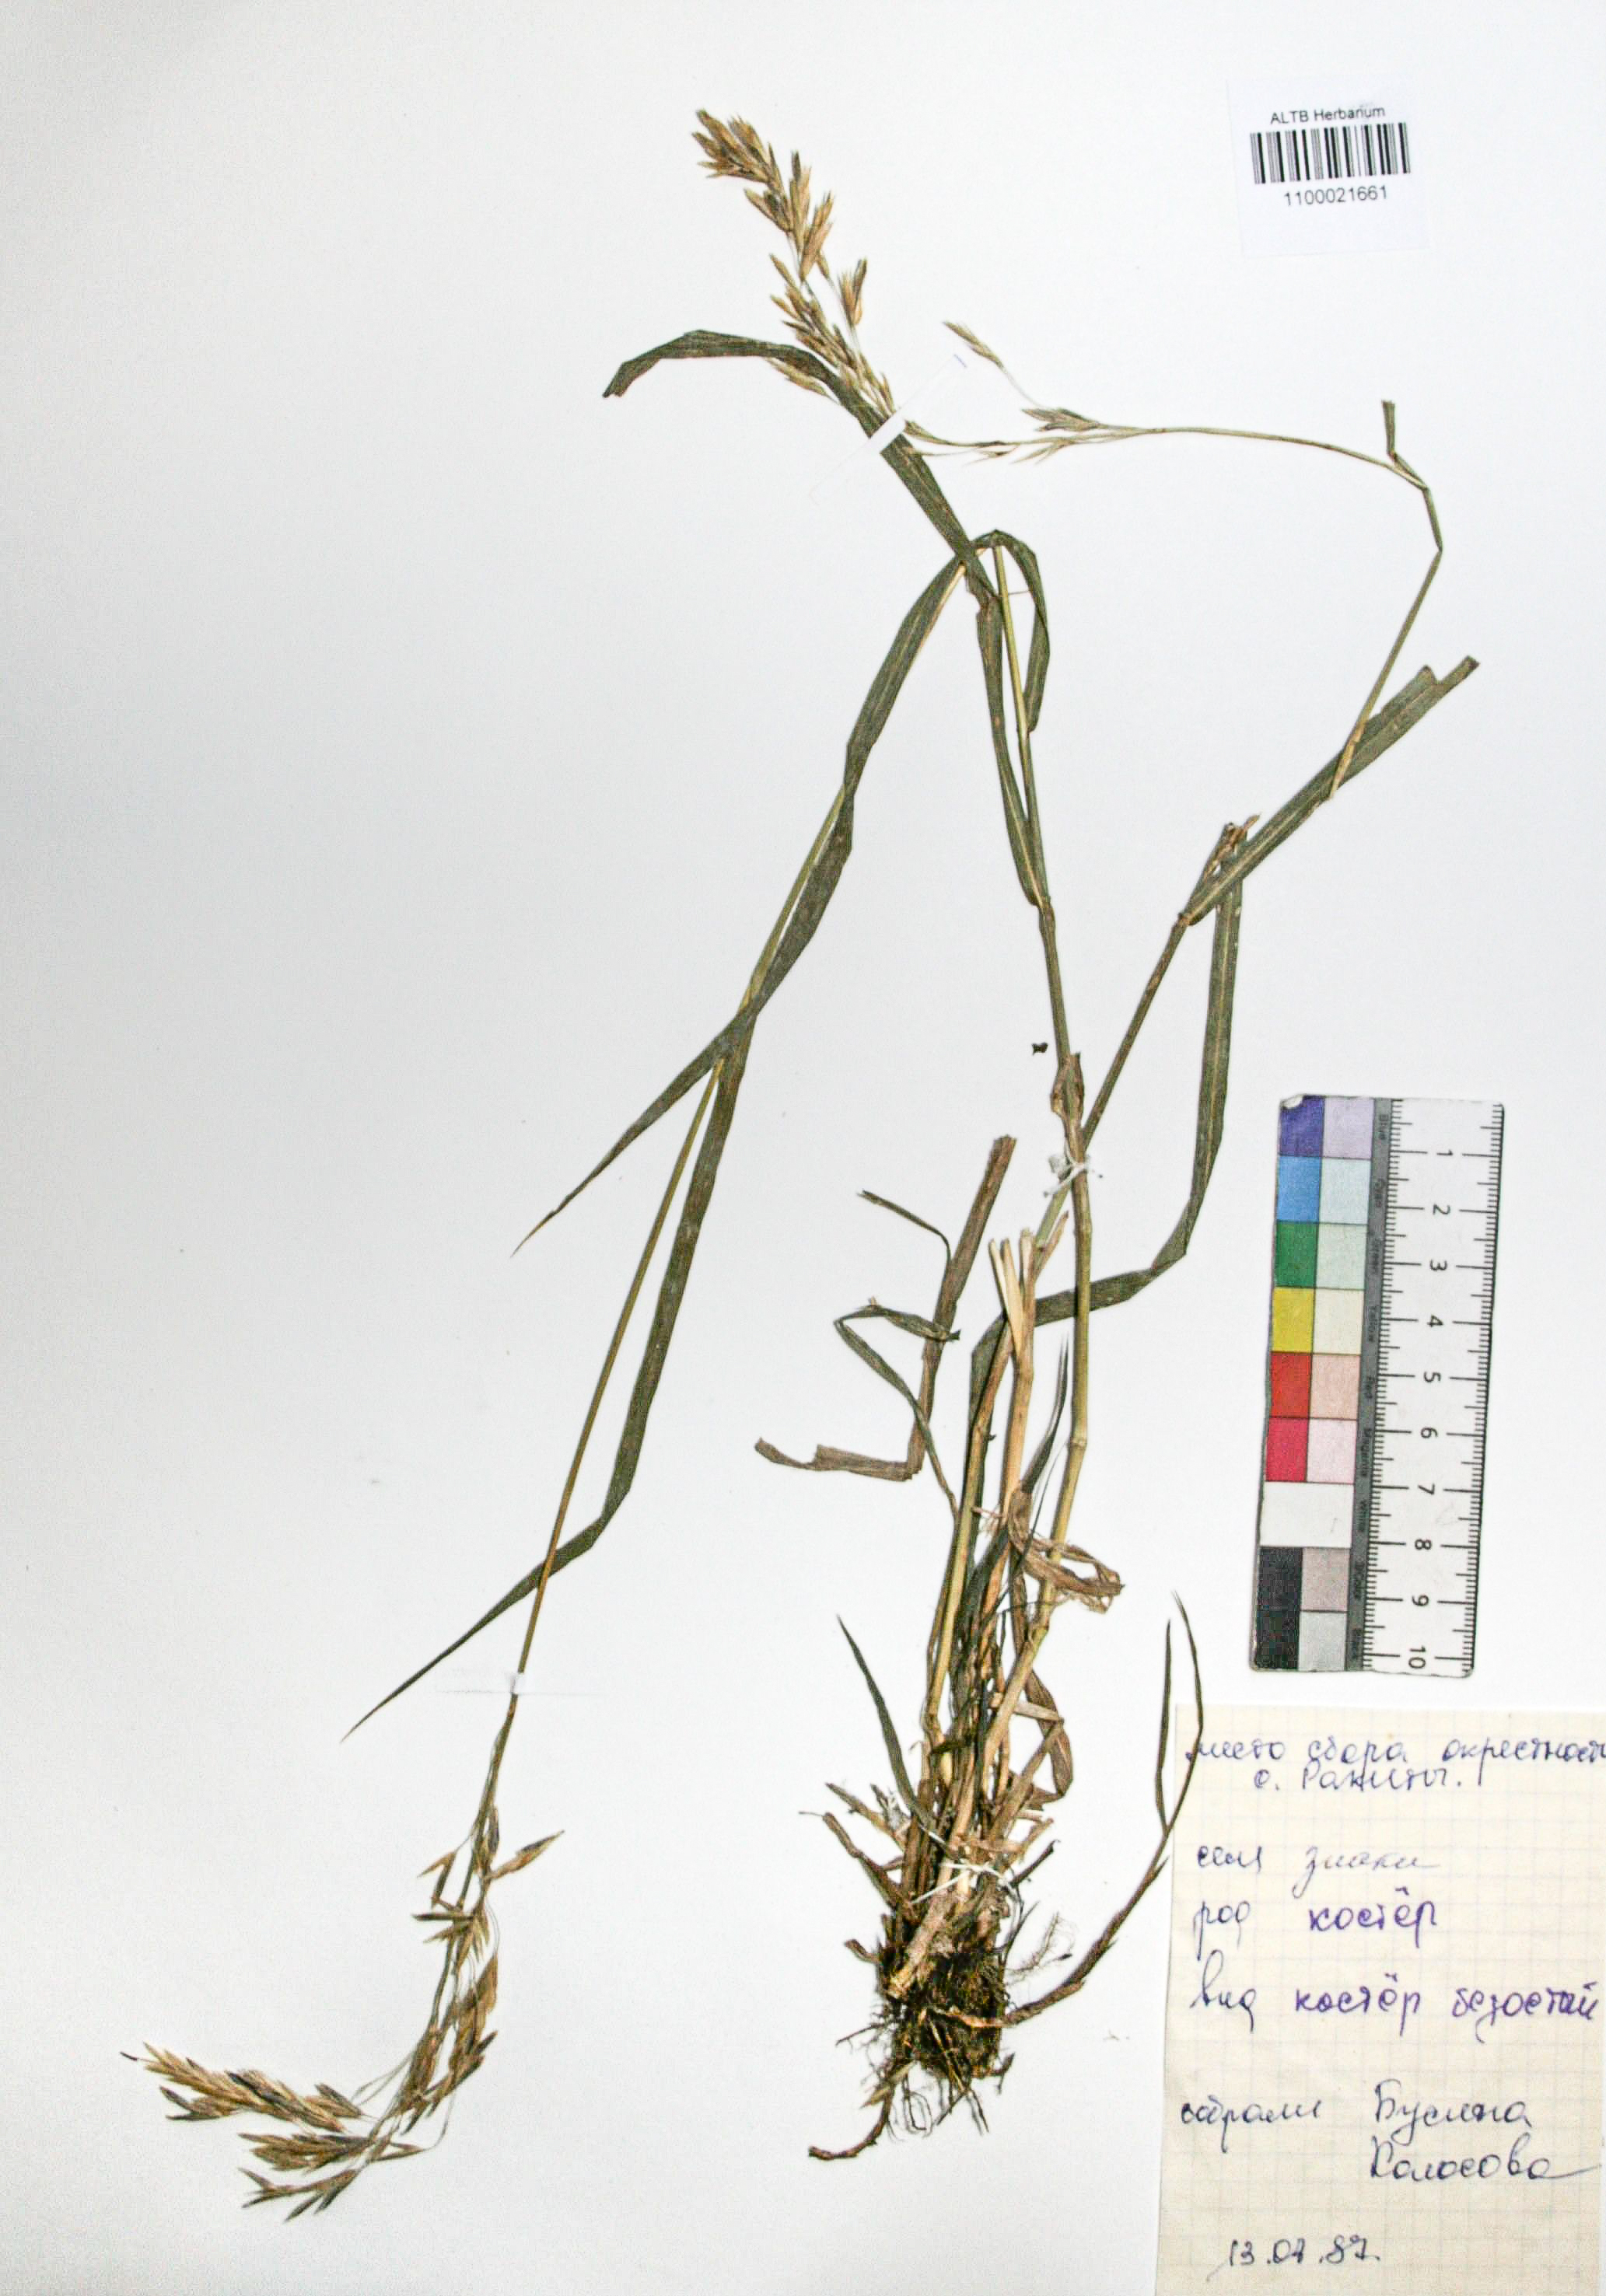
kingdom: Plantae
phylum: Tracheophyta
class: Liliopsida
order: Poales
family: Poaceae
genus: Bromus
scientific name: Bromus inermis
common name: Smooth brome
